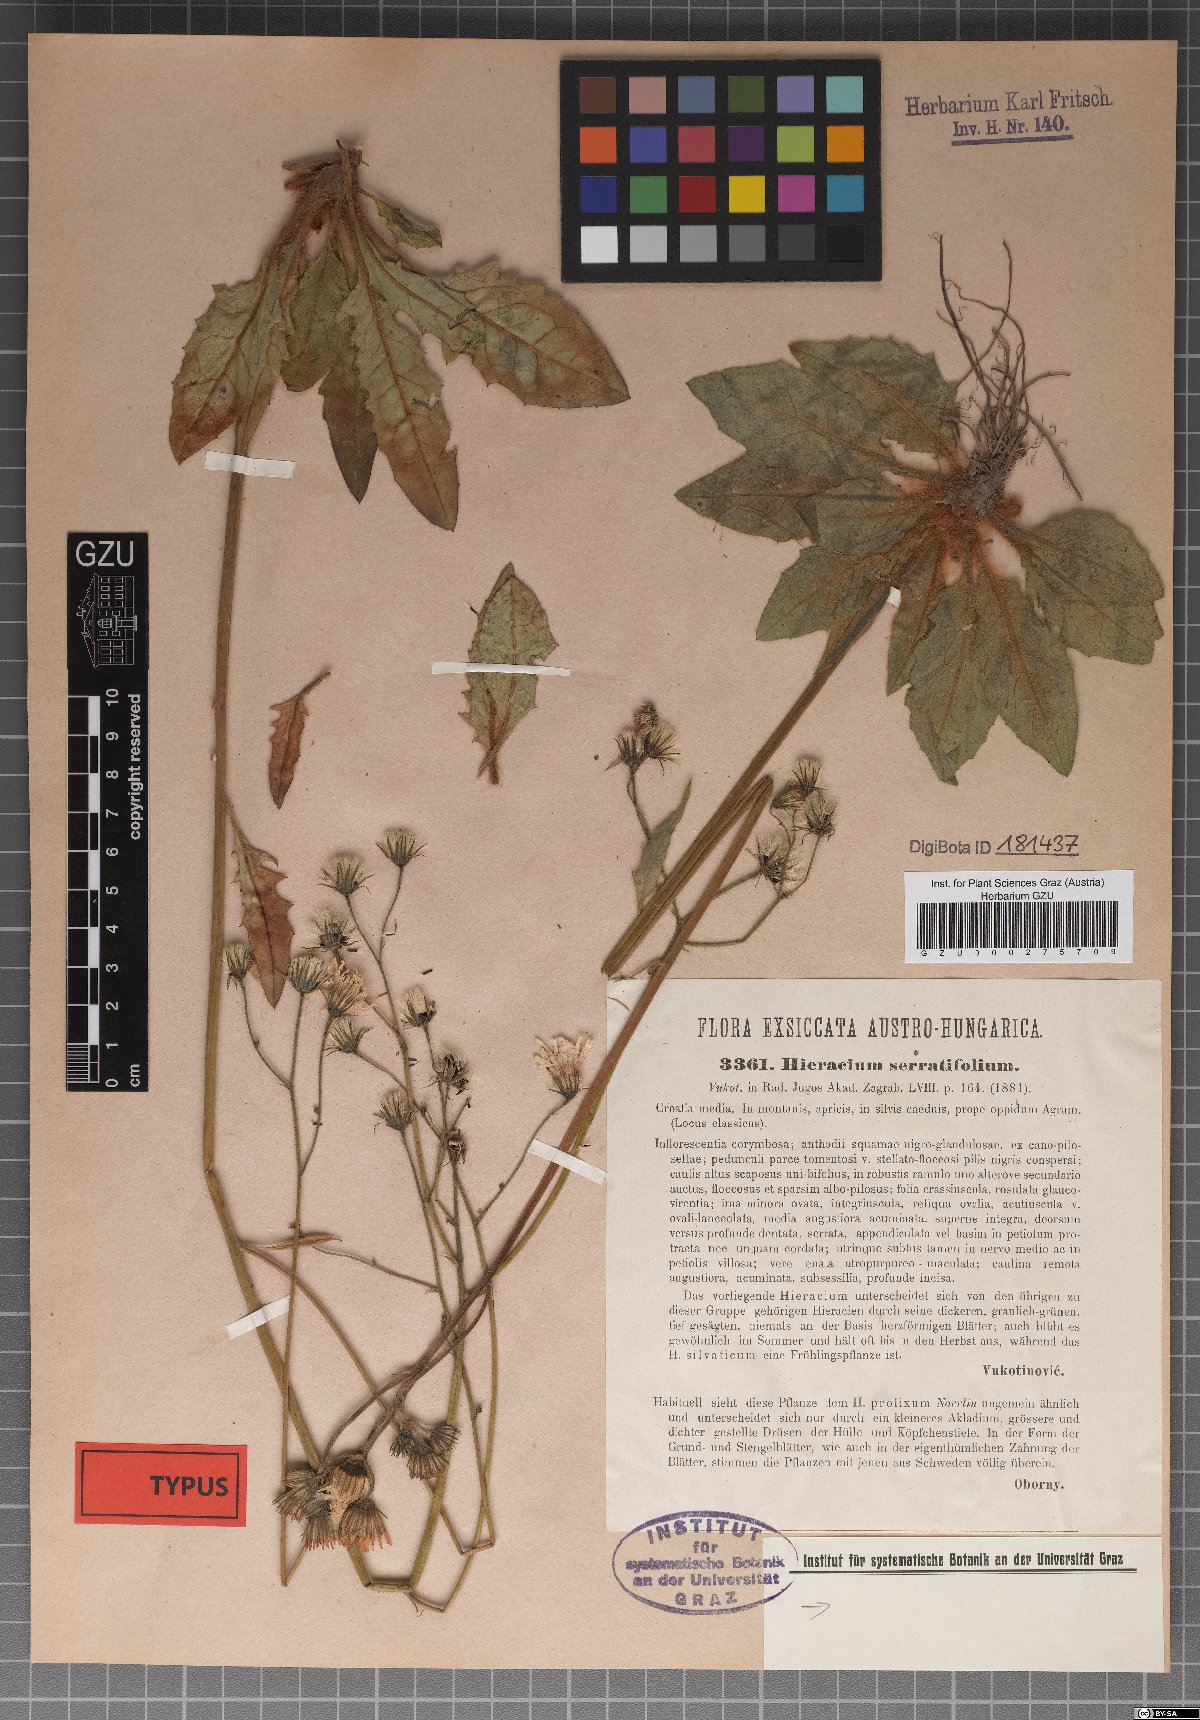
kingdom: Plantae
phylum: Tracheophyta
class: Magnoliopsida
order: Asterales
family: Asteraceae
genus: Hieracium
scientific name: Hieracium rotundatum
